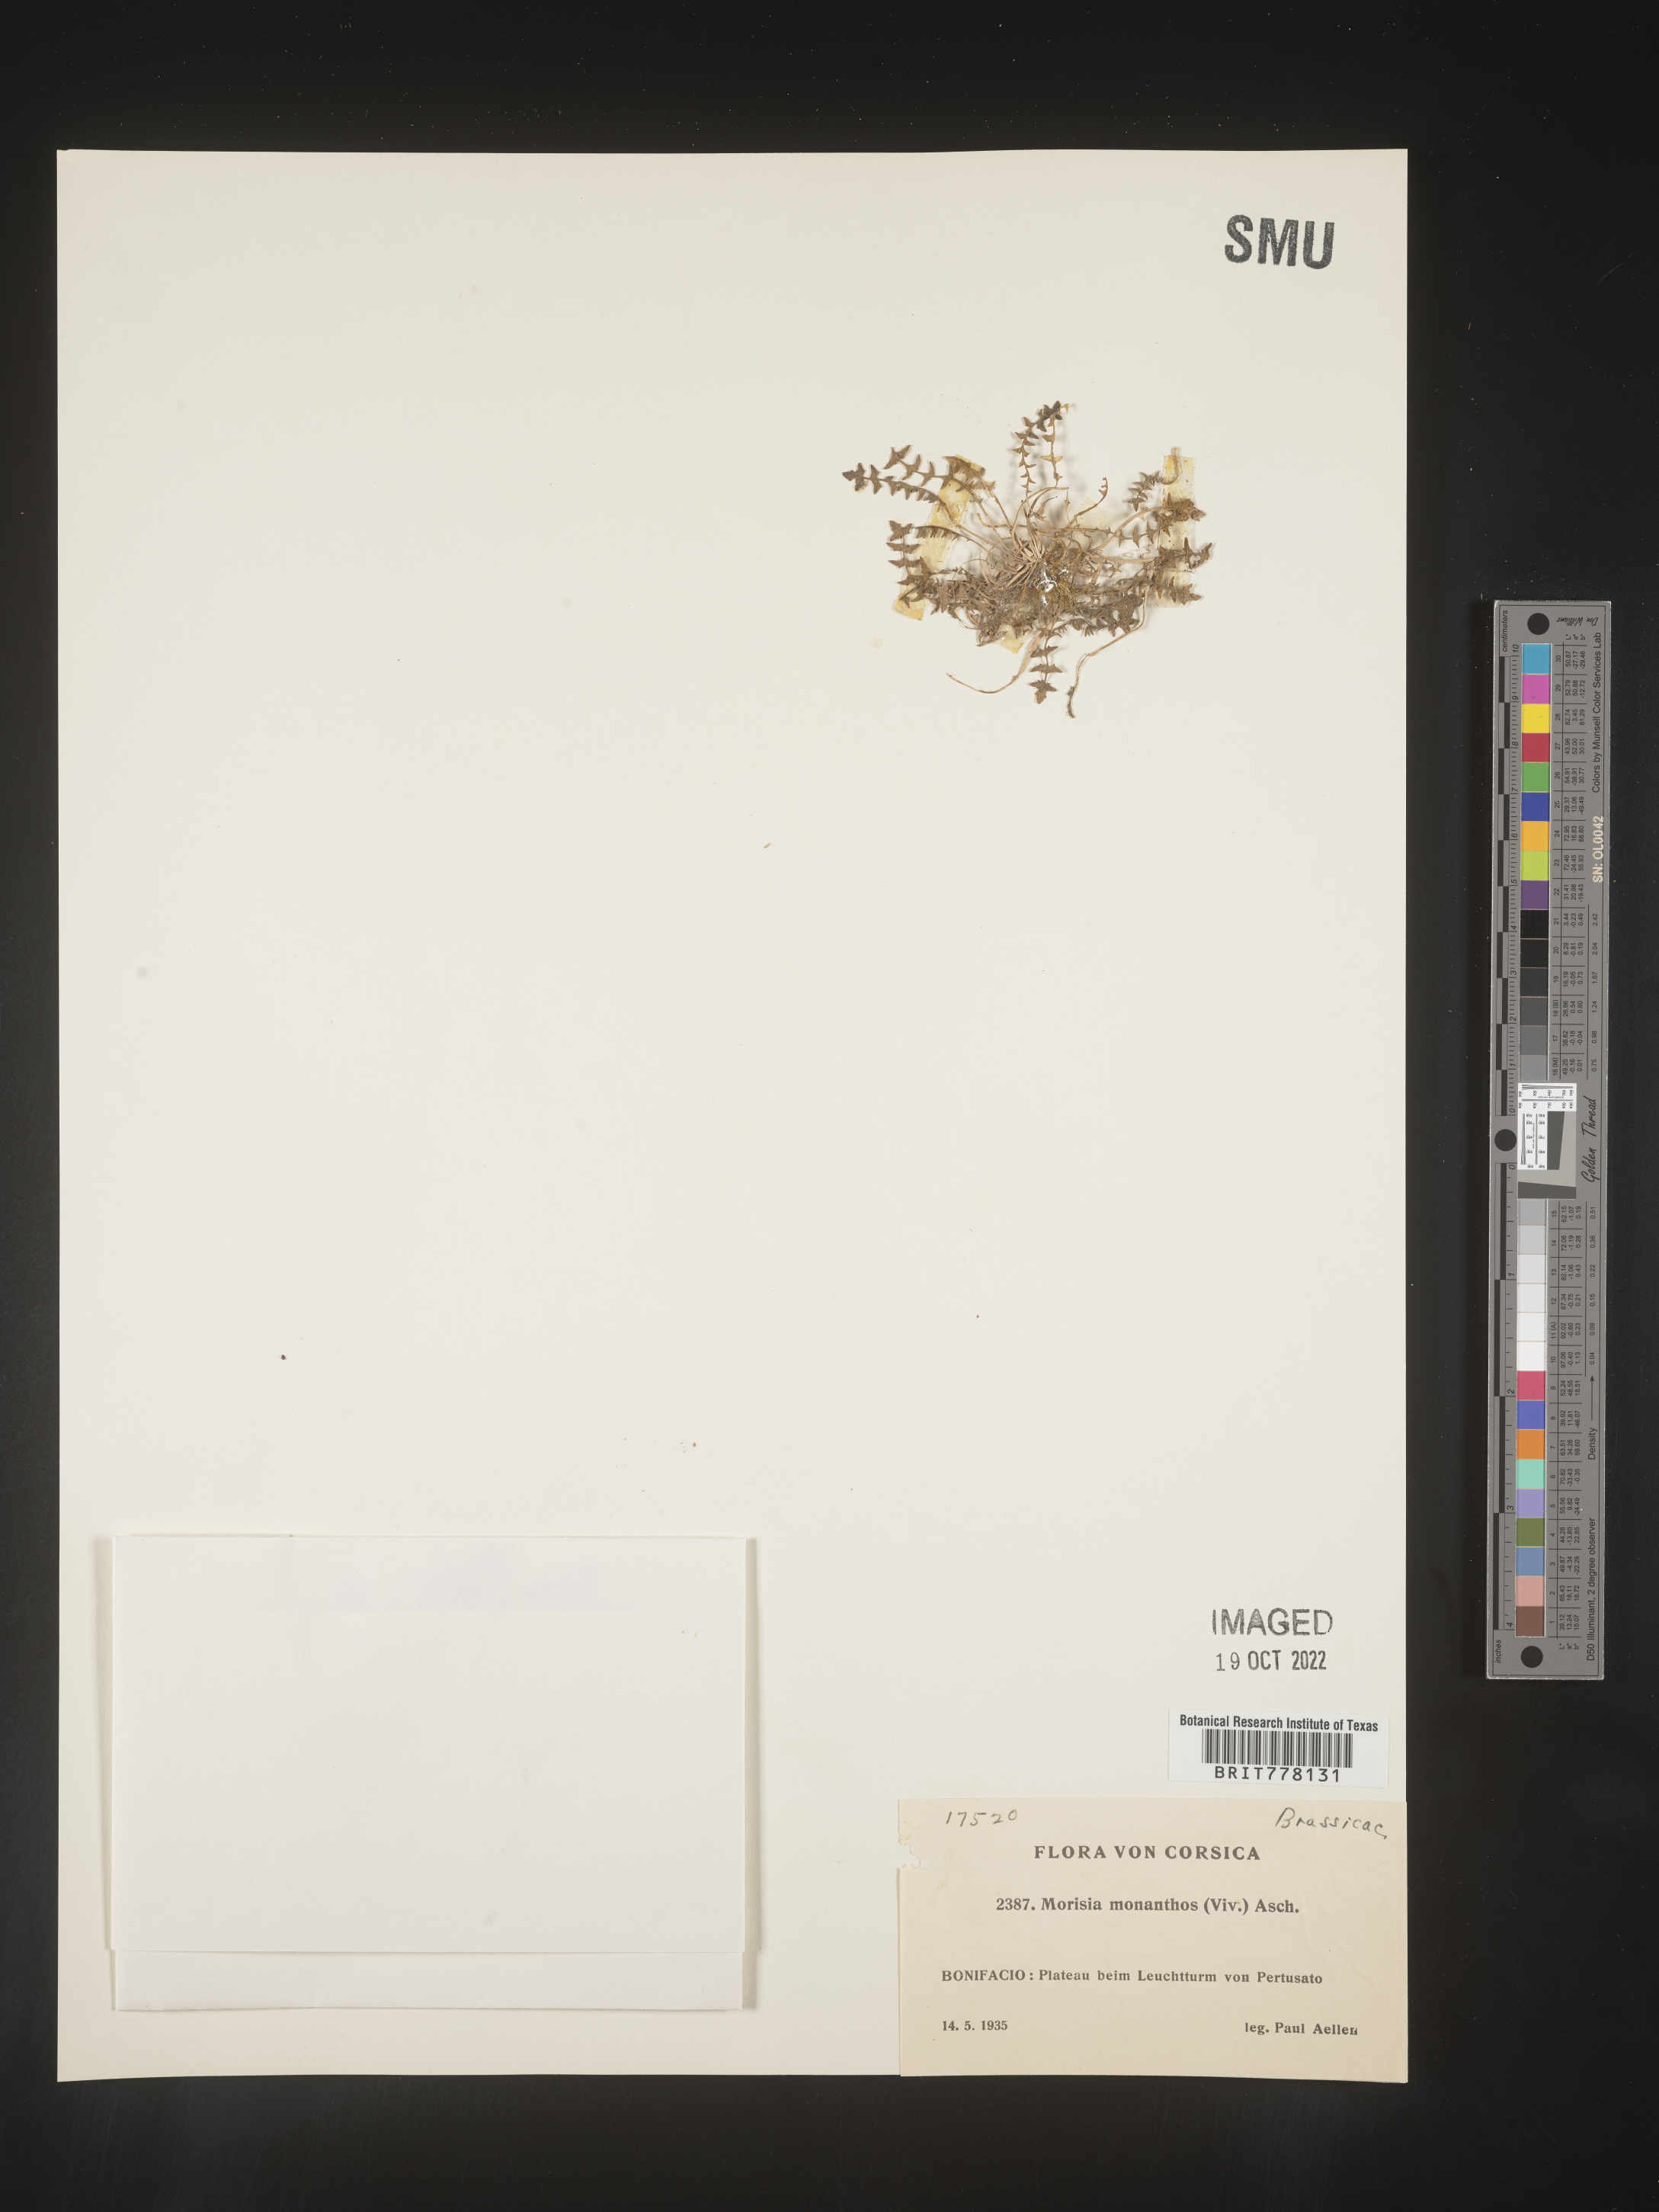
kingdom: Plantae
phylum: Tracheophyta
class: Magnoliopsida
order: Brassicales
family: Brassicaceae
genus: Morisia
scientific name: Morisia
